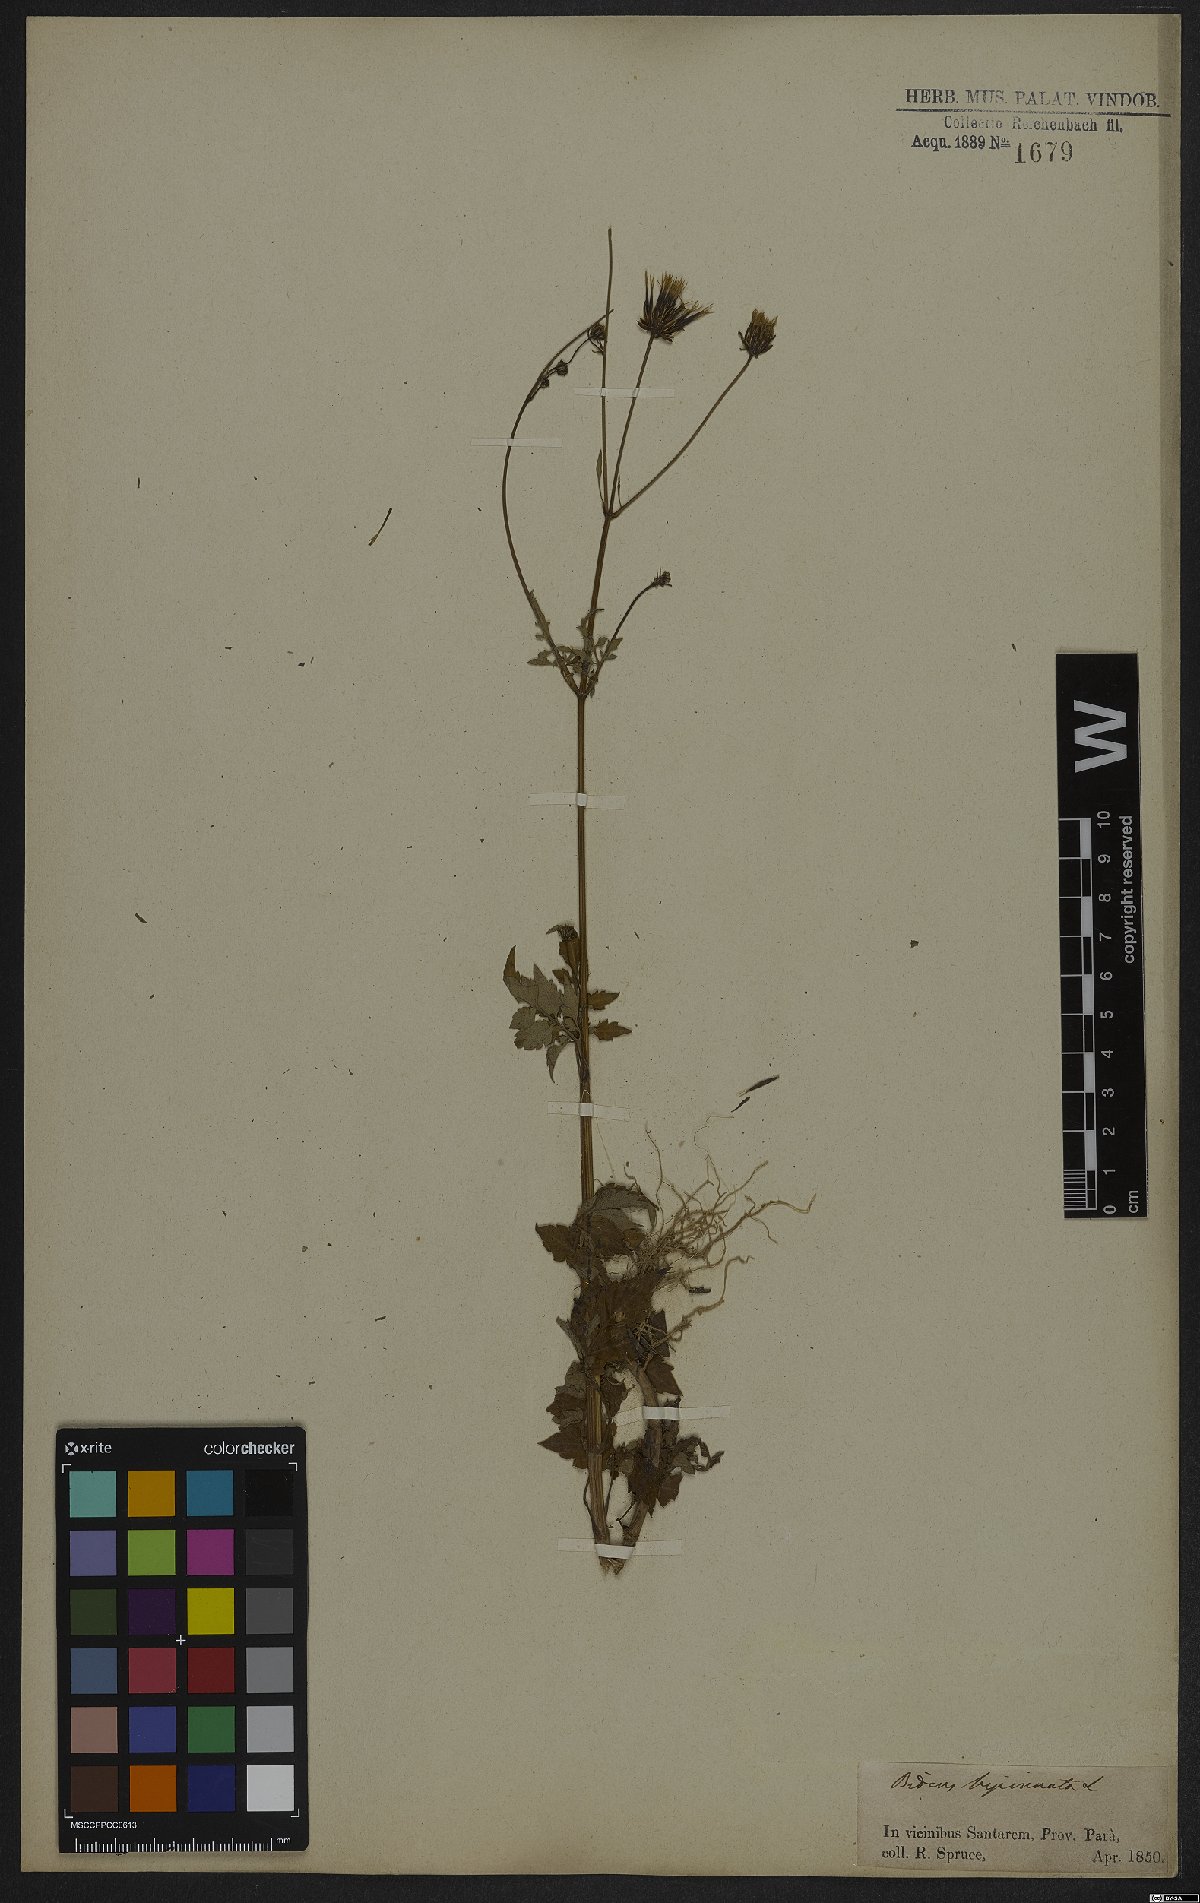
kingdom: Plantae
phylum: Tracheophyta
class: Magnoliopsida
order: Asterales
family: Asteraceae
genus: Bidens
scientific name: Bidens bipinnata
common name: Spanish-needles
